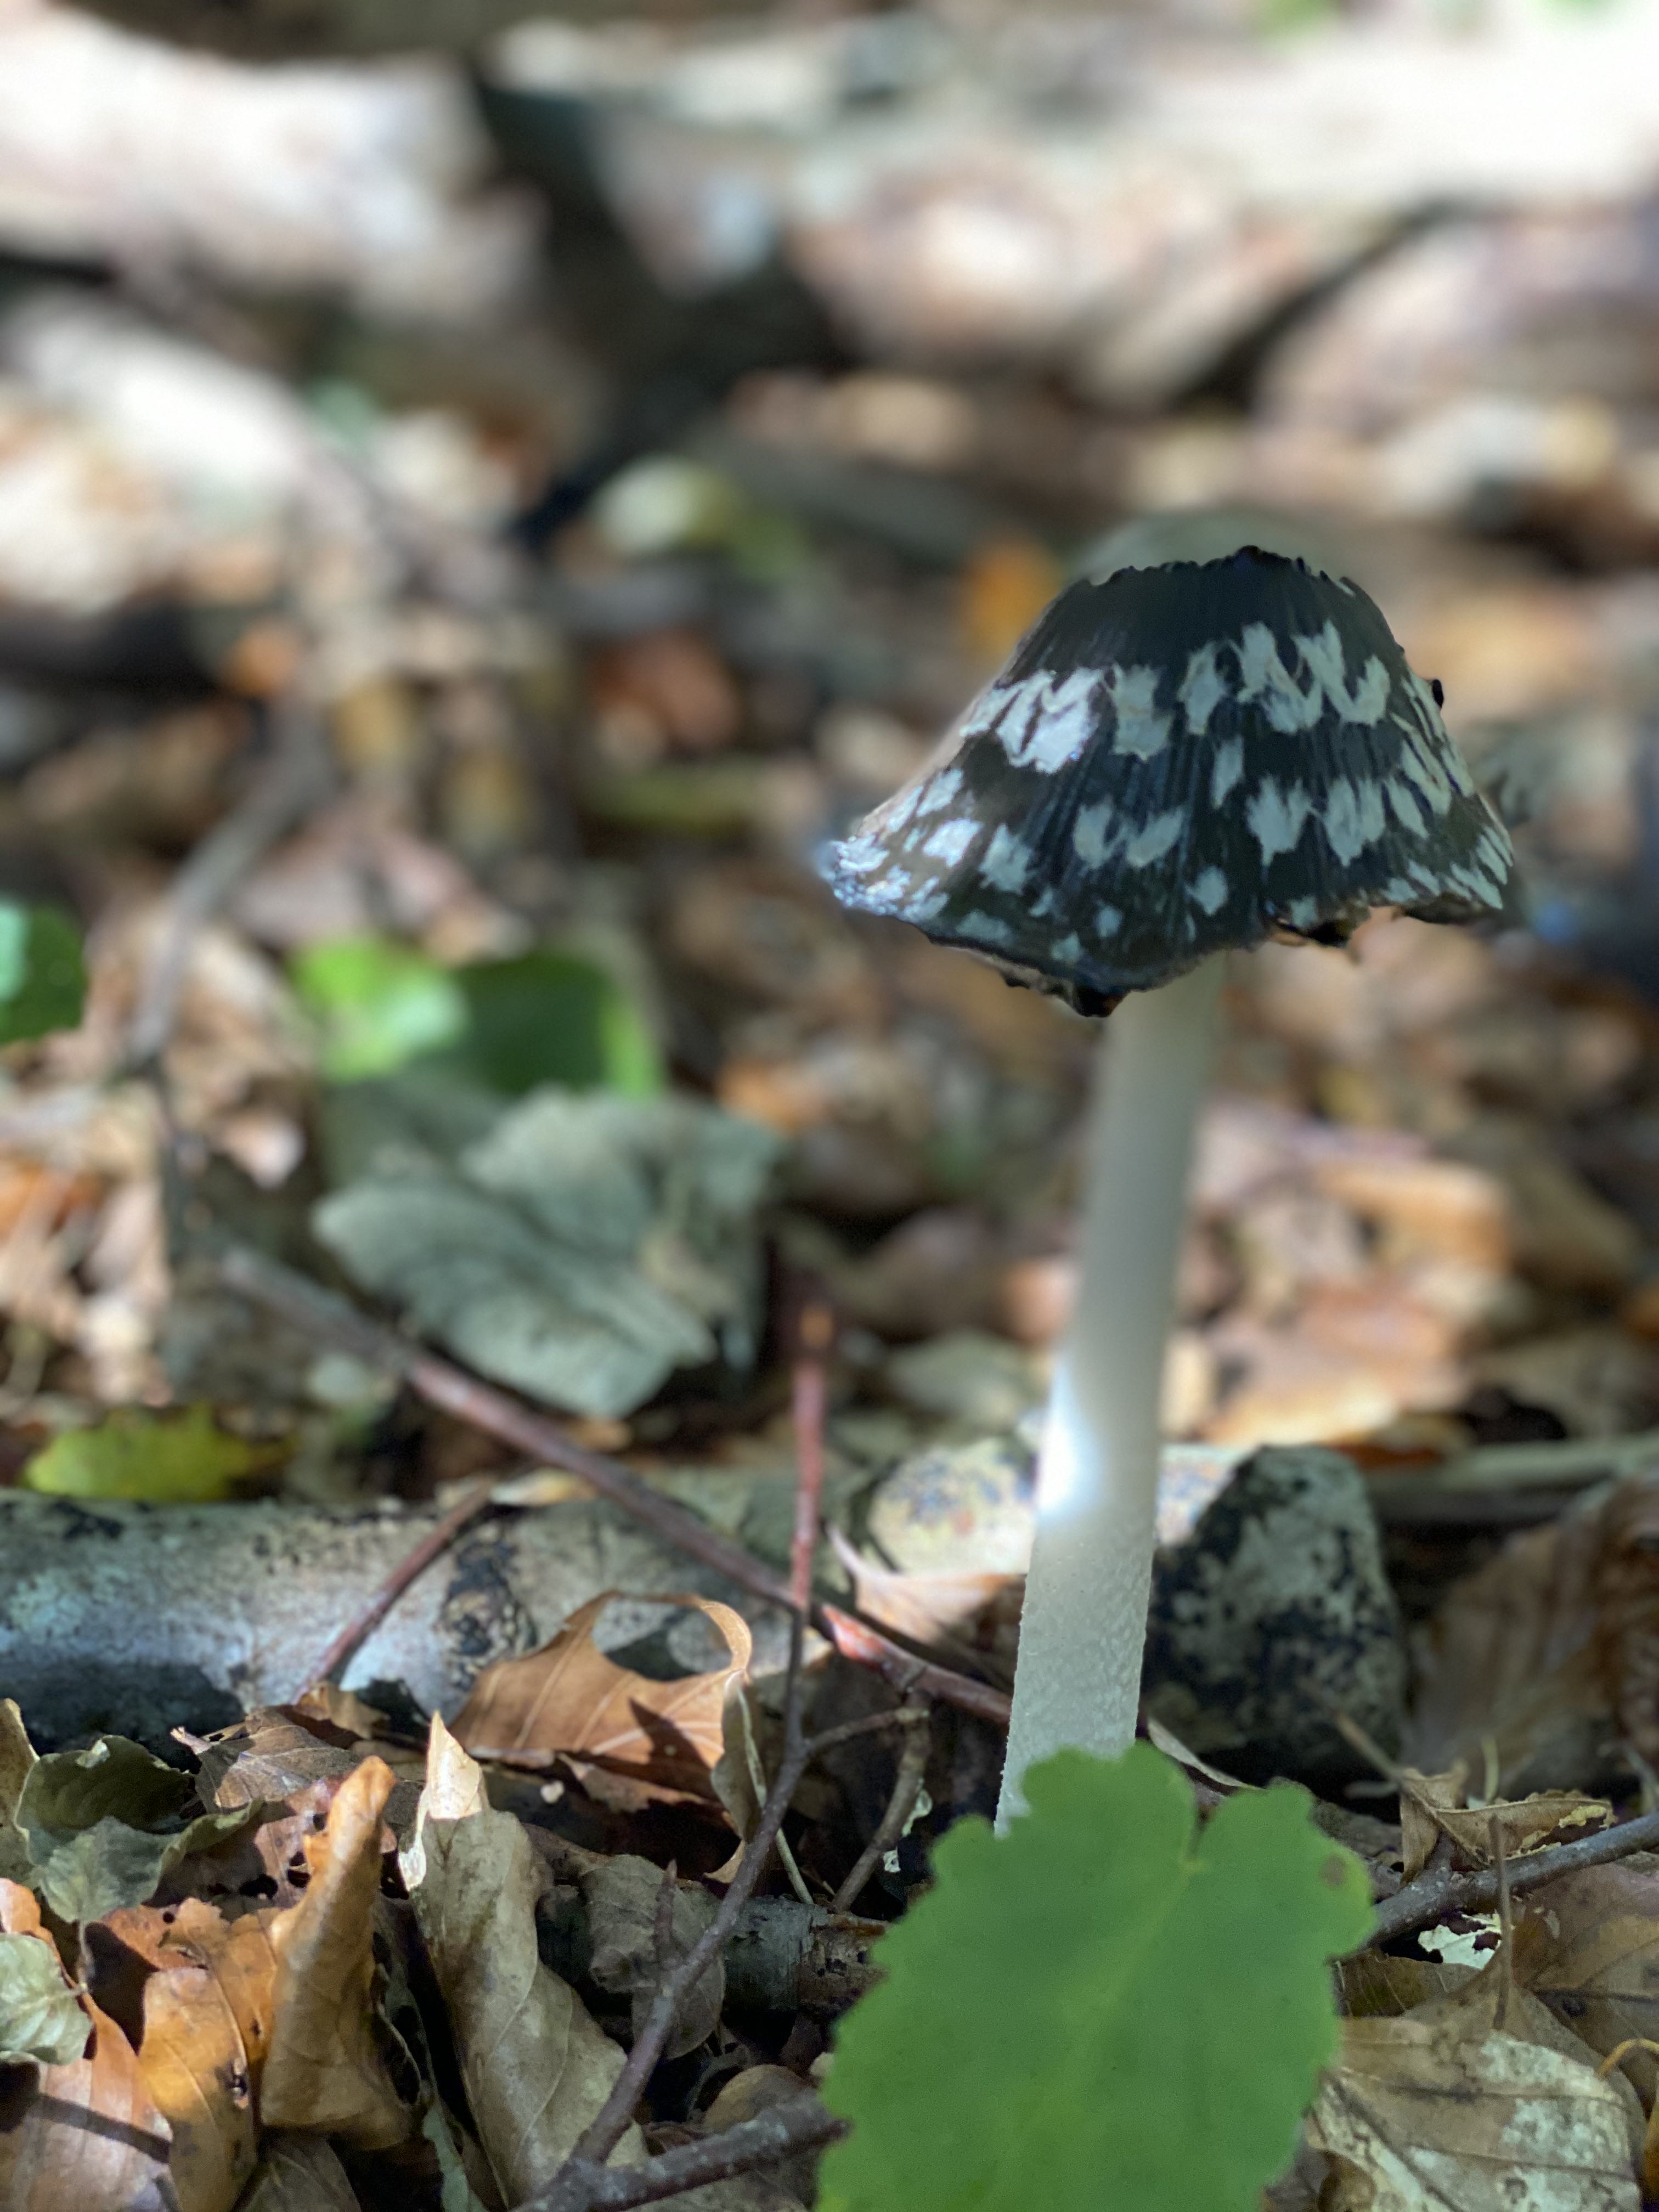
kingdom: Fungi
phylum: Basidiomycota
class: Agaricomycetes
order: Agaricales
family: Psathyrellaceae
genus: Coprinopsis
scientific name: Coprinopsis picacea
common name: skade-blækhat
